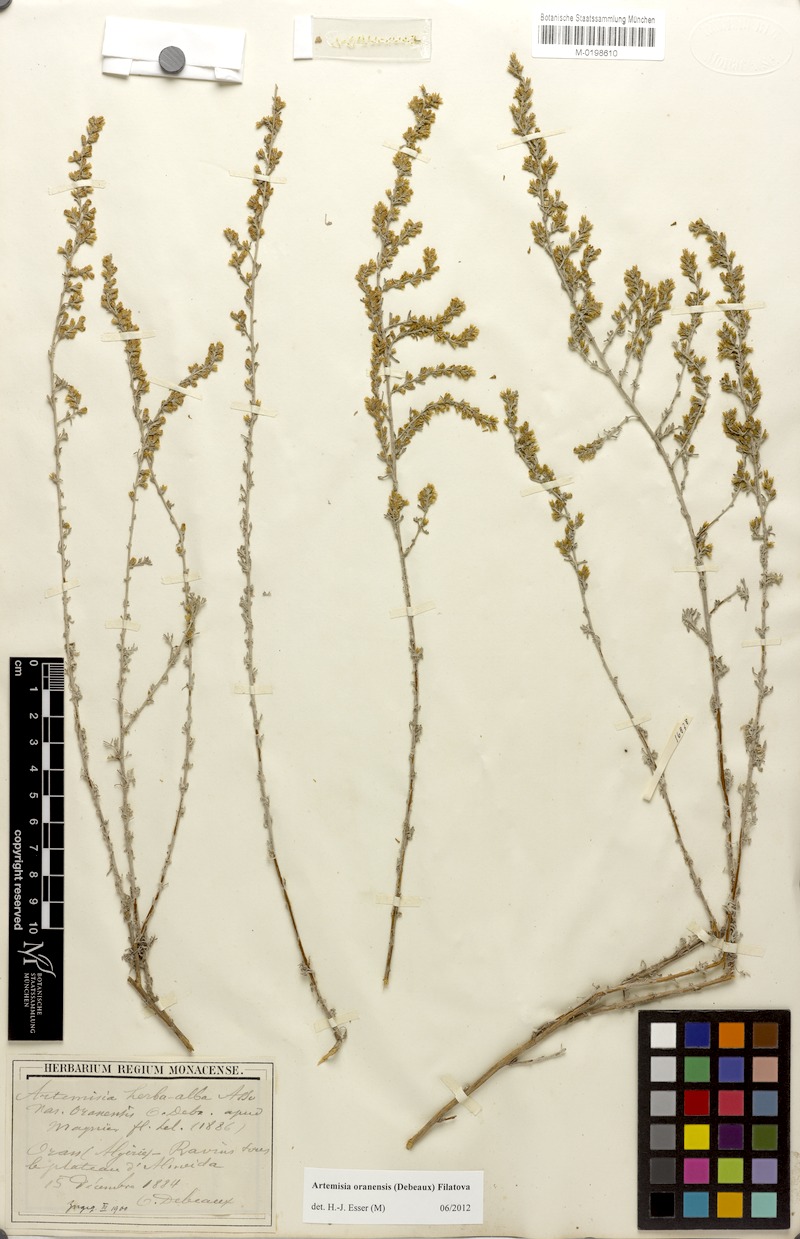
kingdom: Plantae
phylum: Tracheophyta
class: Magnoliopsida
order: Asterales
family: Asteraceae
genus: Artemisia
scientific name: Artemisia oranensis
